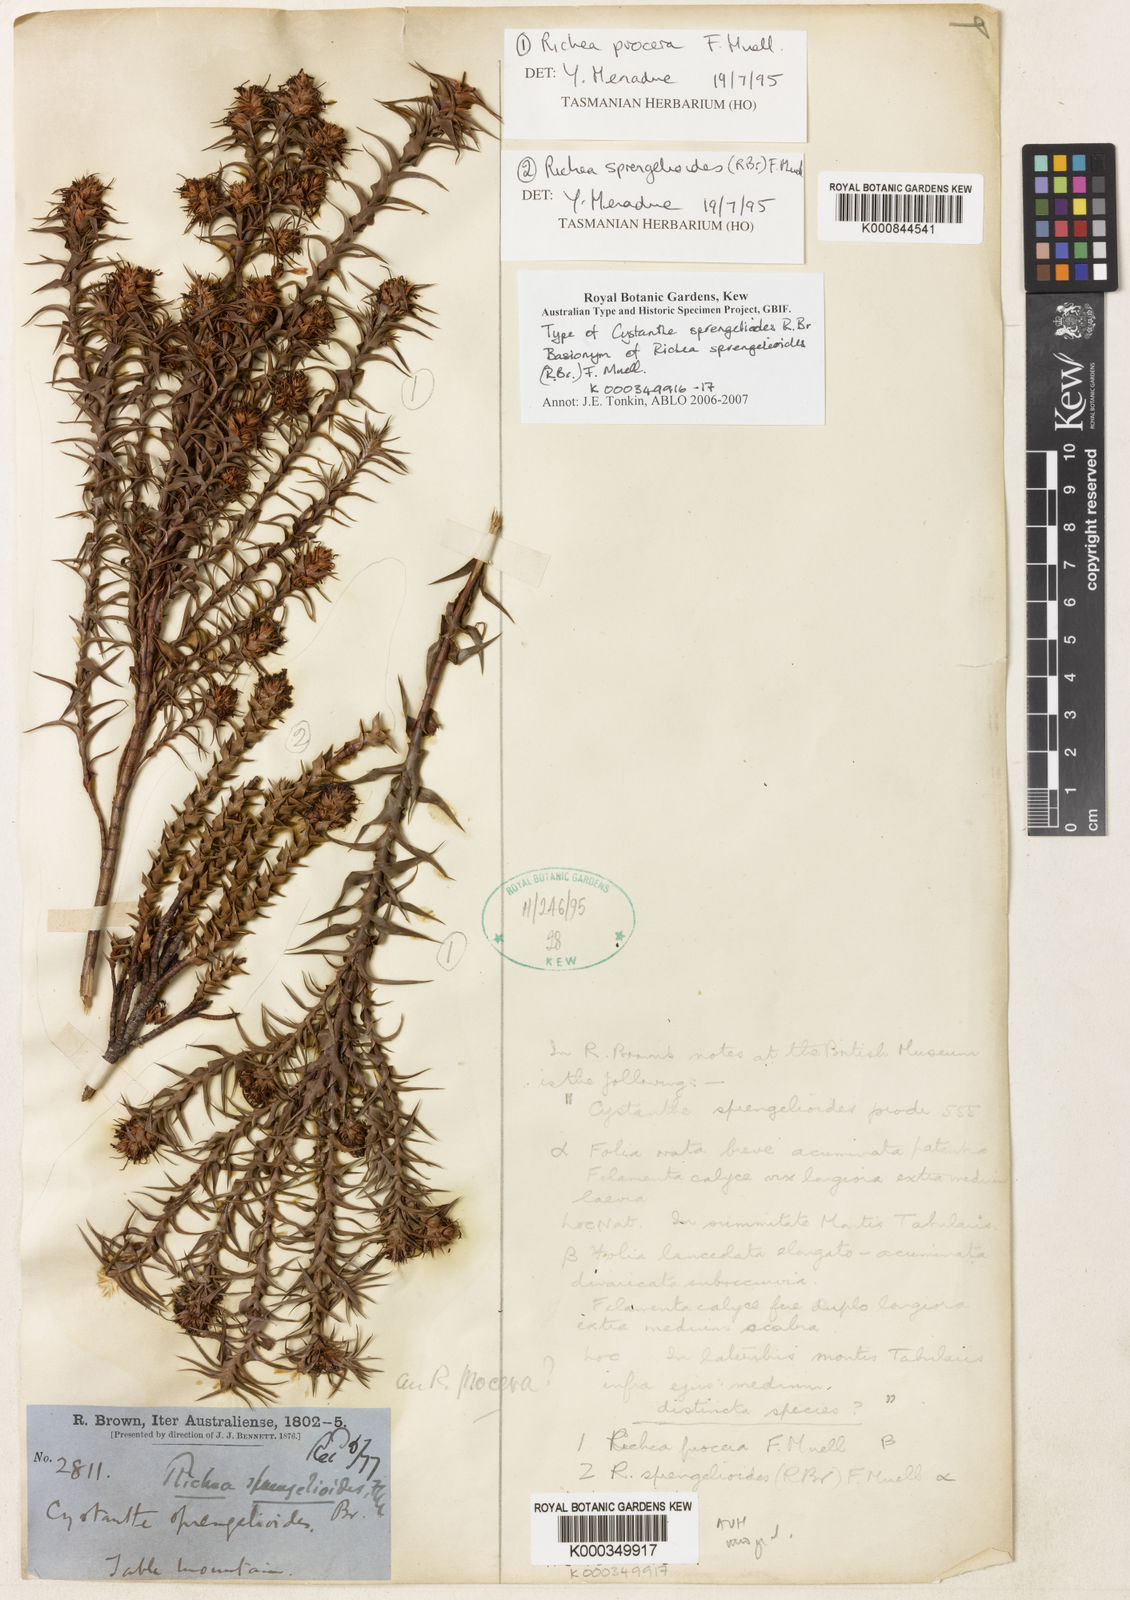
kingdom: Plantae
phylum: Tracheophyta
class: Magnoliopsida
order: Ericales
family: Ericaceae
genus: Dracophyllum
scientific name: Dracophyllum sprengelioides
